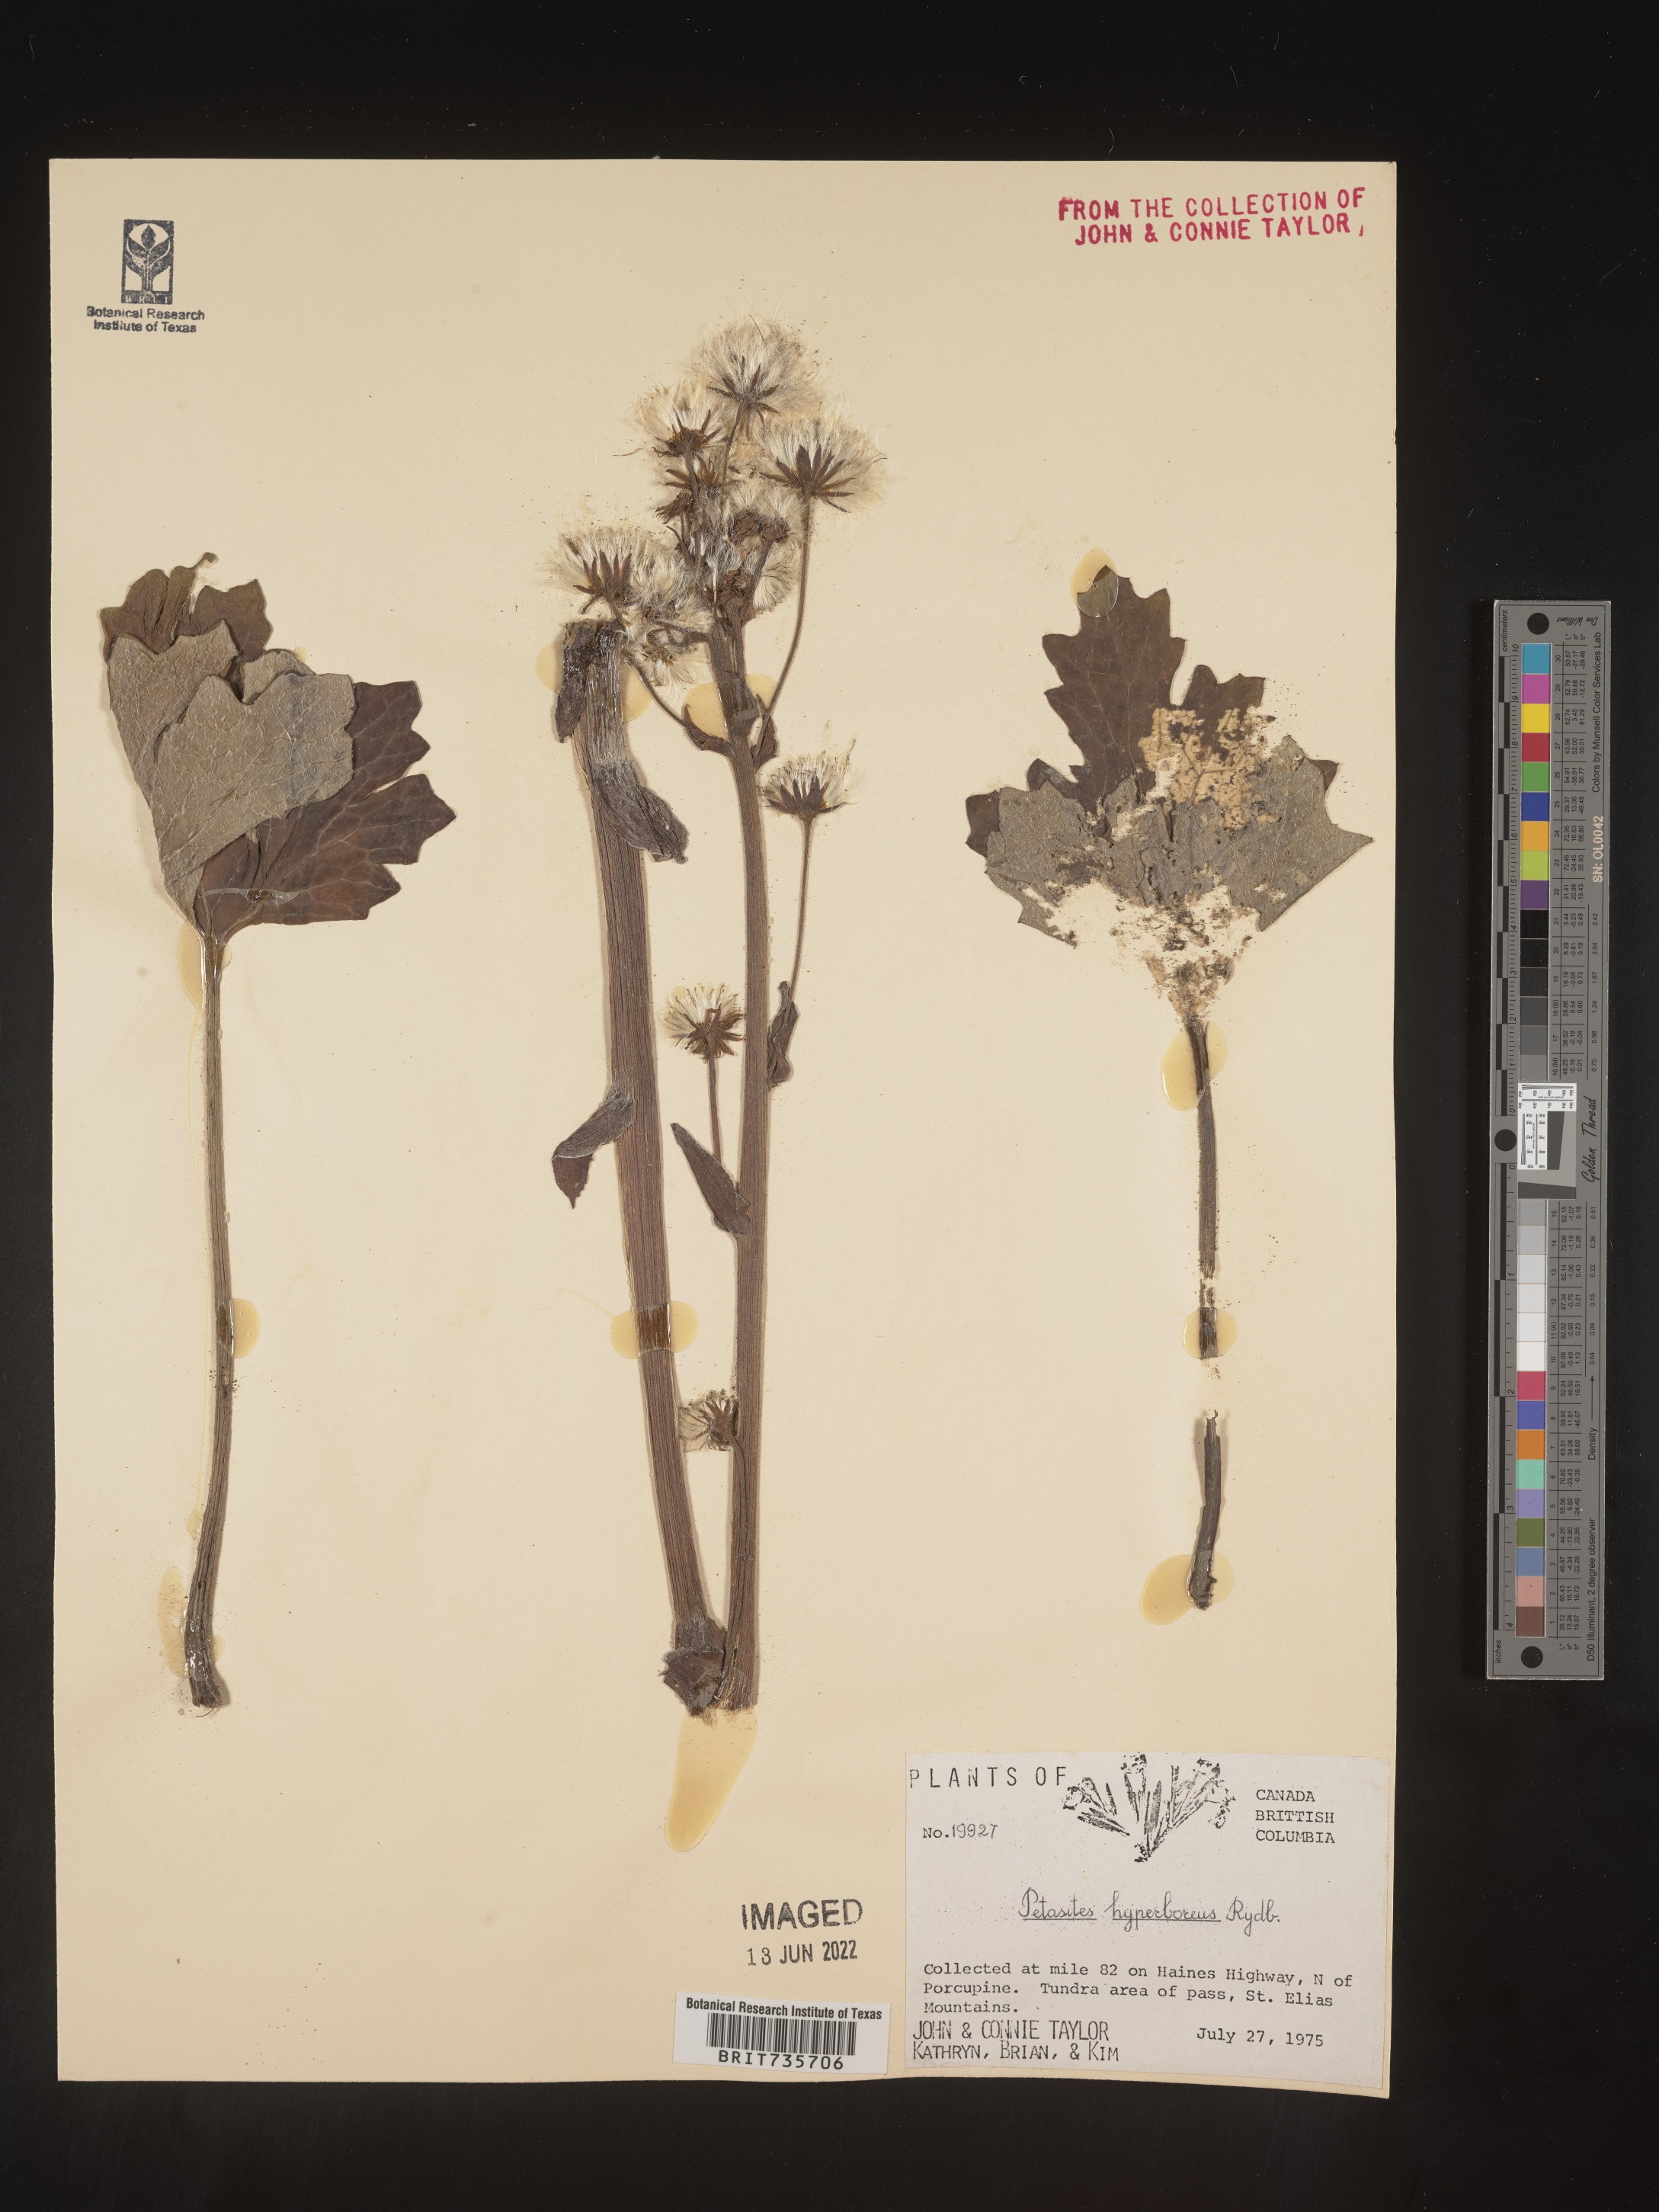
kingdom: Plantae
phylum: Tracheophyta
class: Magnoliopsida
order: Asterales
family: Asteraceae
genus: Petasites
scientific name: Petasites frigidus
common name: Arctic butterbur
